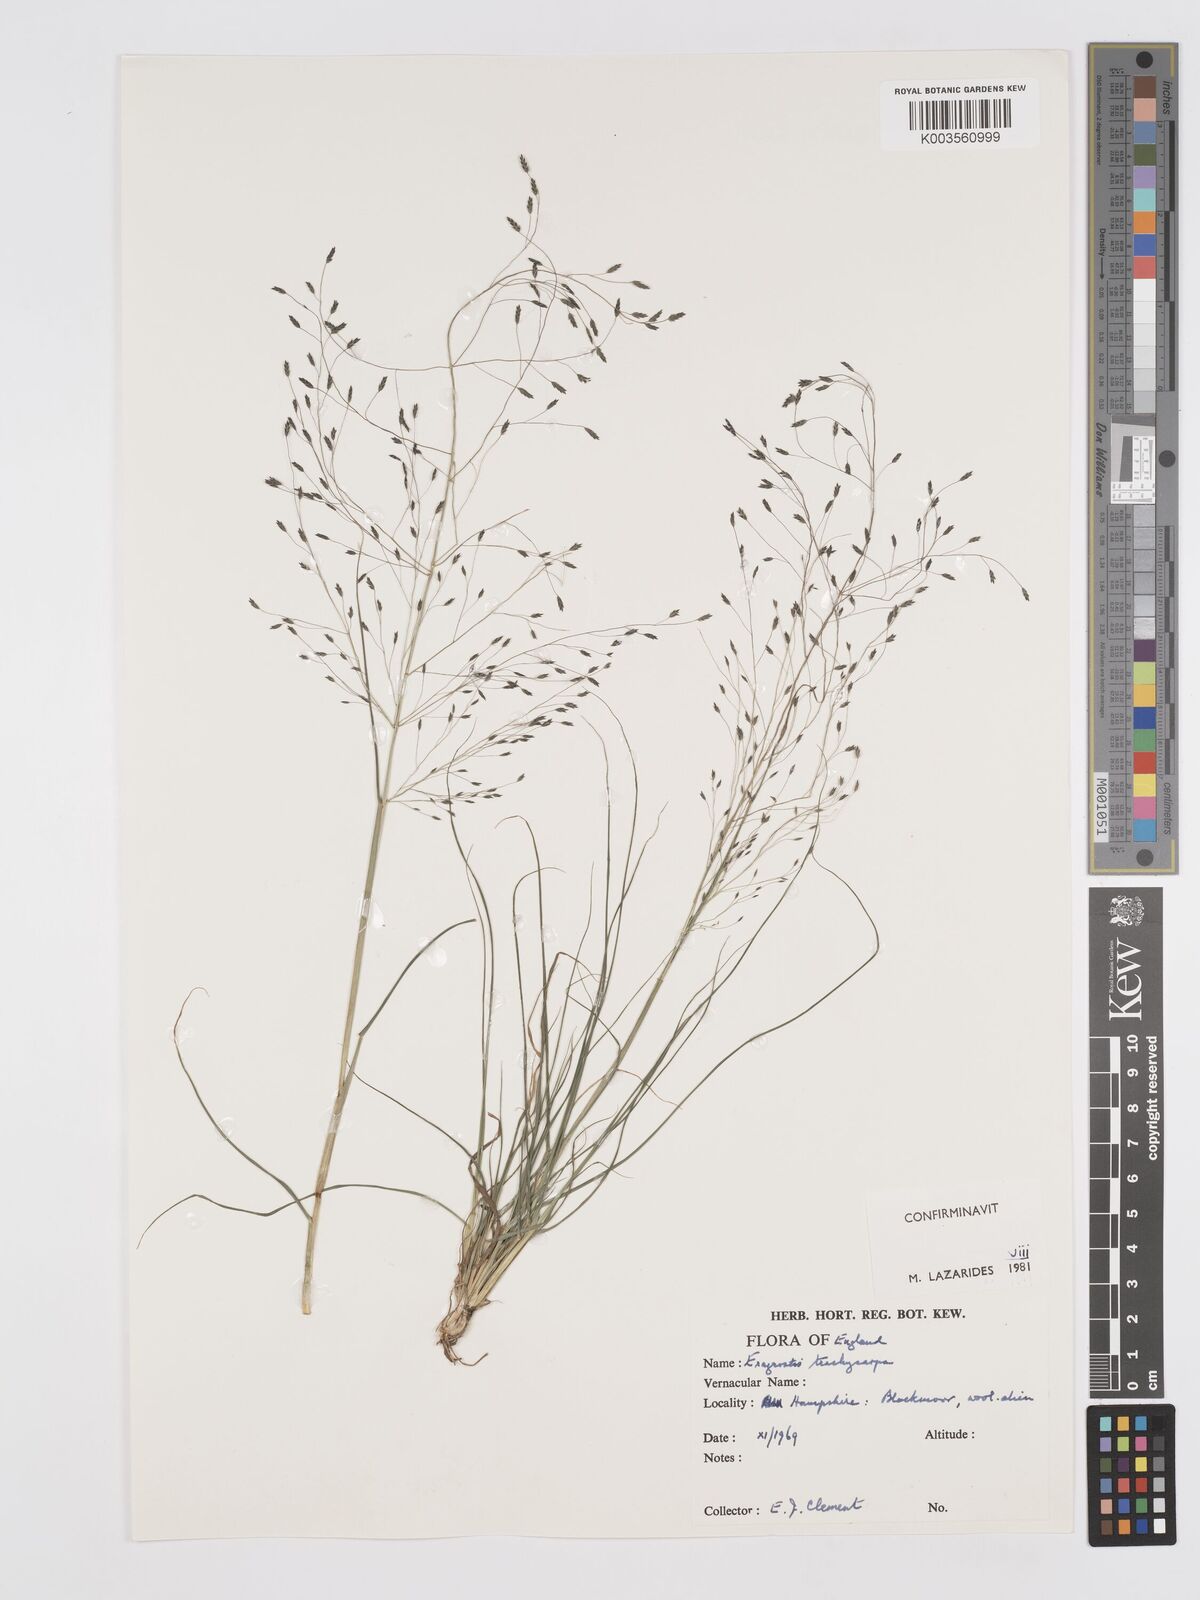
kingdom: Plantae
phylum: Tracheophyta
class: Liliopsida
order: Poales
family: Poaceae
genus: Eragrostis
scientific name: Eragrostis trachycarpa
